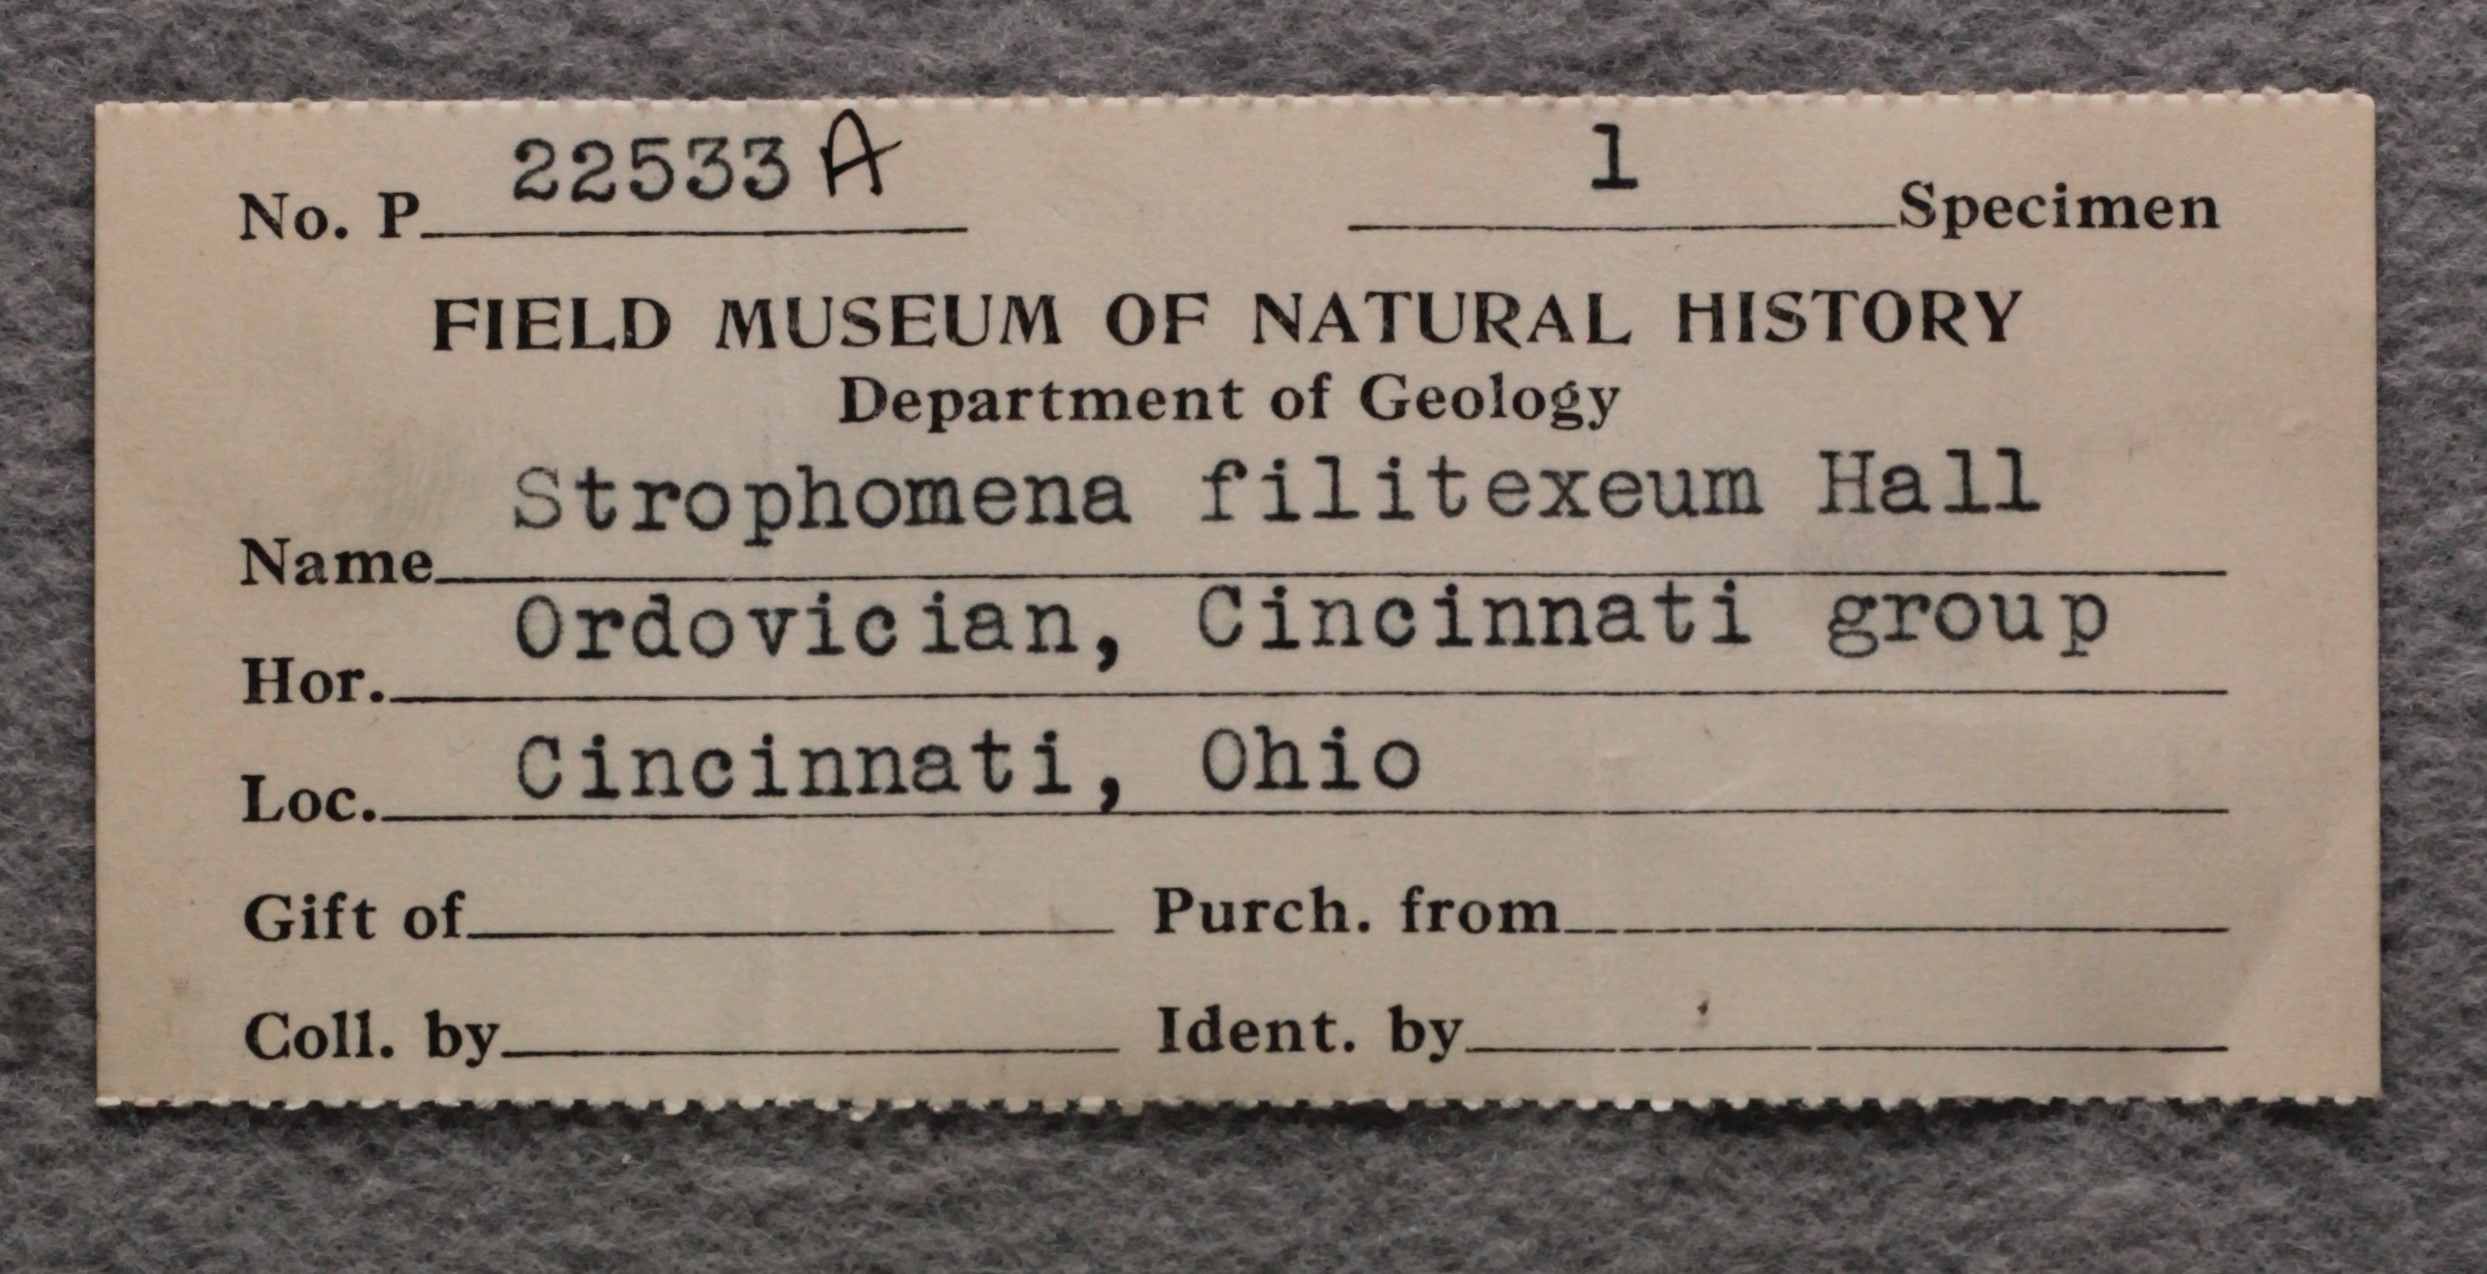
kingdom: Animalia
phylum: Brachiopoda
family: Strophomenidae
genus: Strophomena
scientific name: Strophomena Leptaena filitexta
